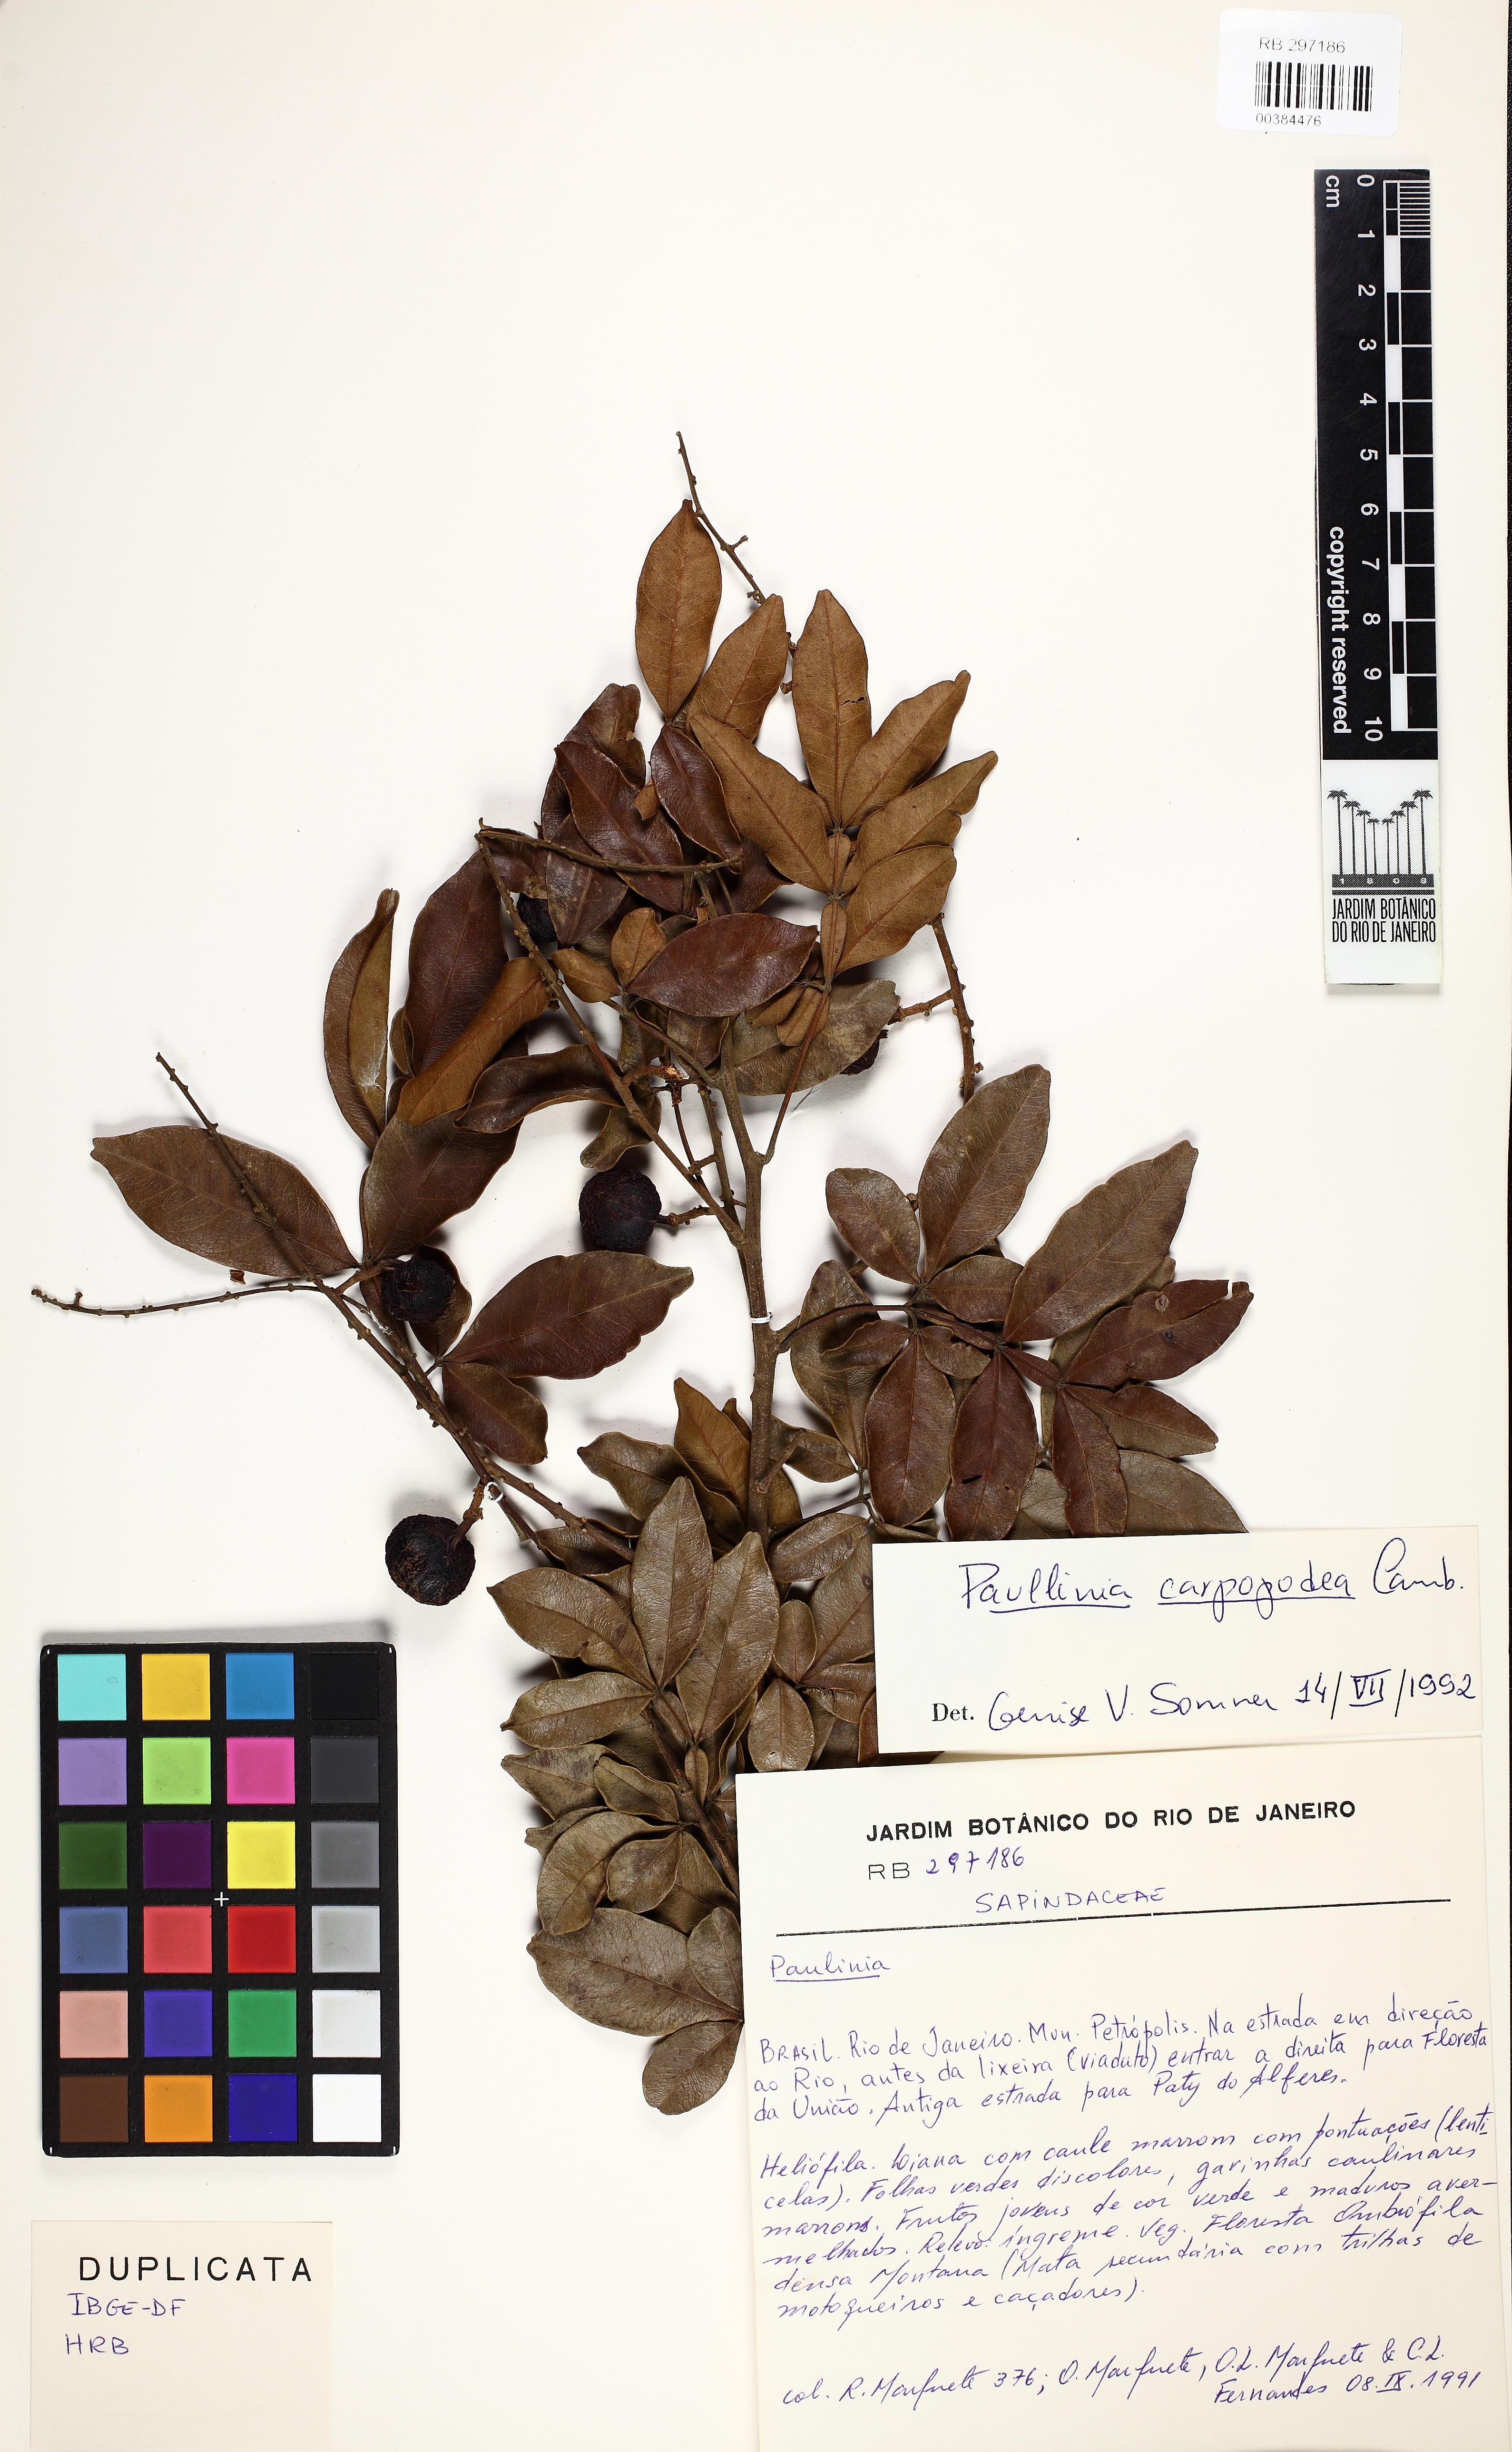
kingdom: Plantae
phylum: Tracheophyta
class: Magnoliopsida
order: Sapindales
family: Sapindaceae
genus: Paullinia
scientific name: Paullinia carpopodea
